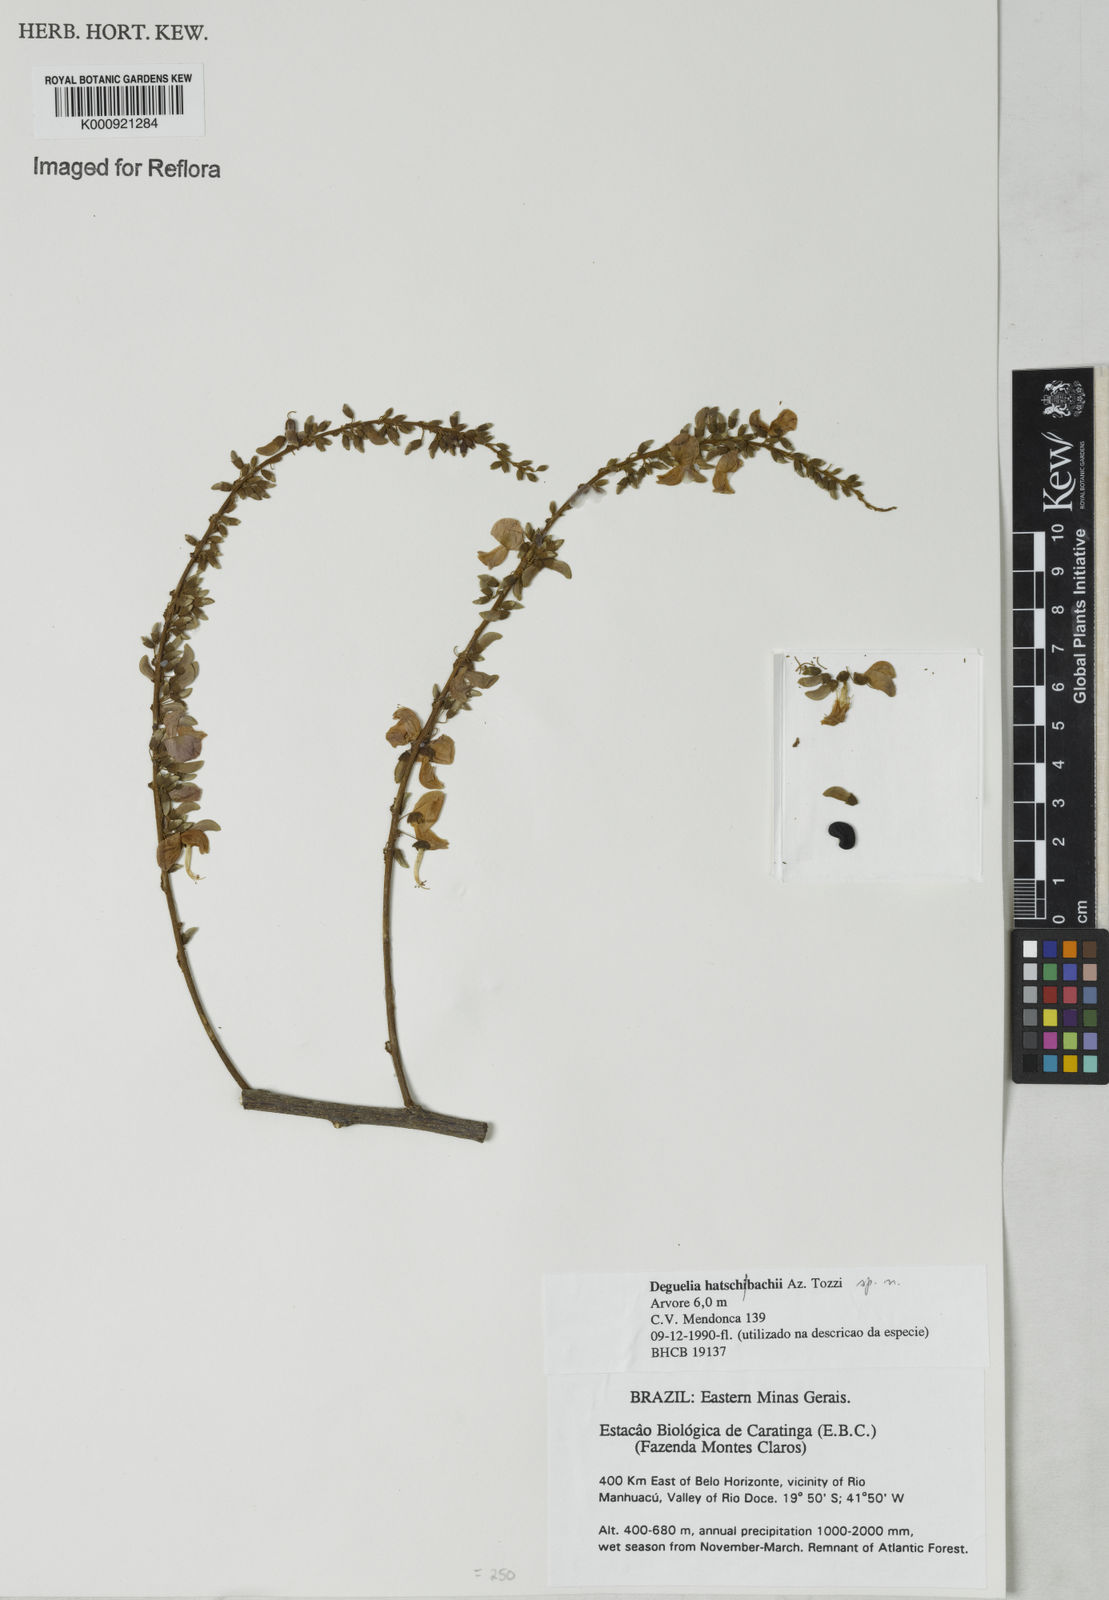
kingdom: Plantae
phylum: Tracheophyta
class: Magnoliopsida
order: Fabales
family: Fabaceae
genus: Deguelia
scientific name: Deguelia hatschbachii
